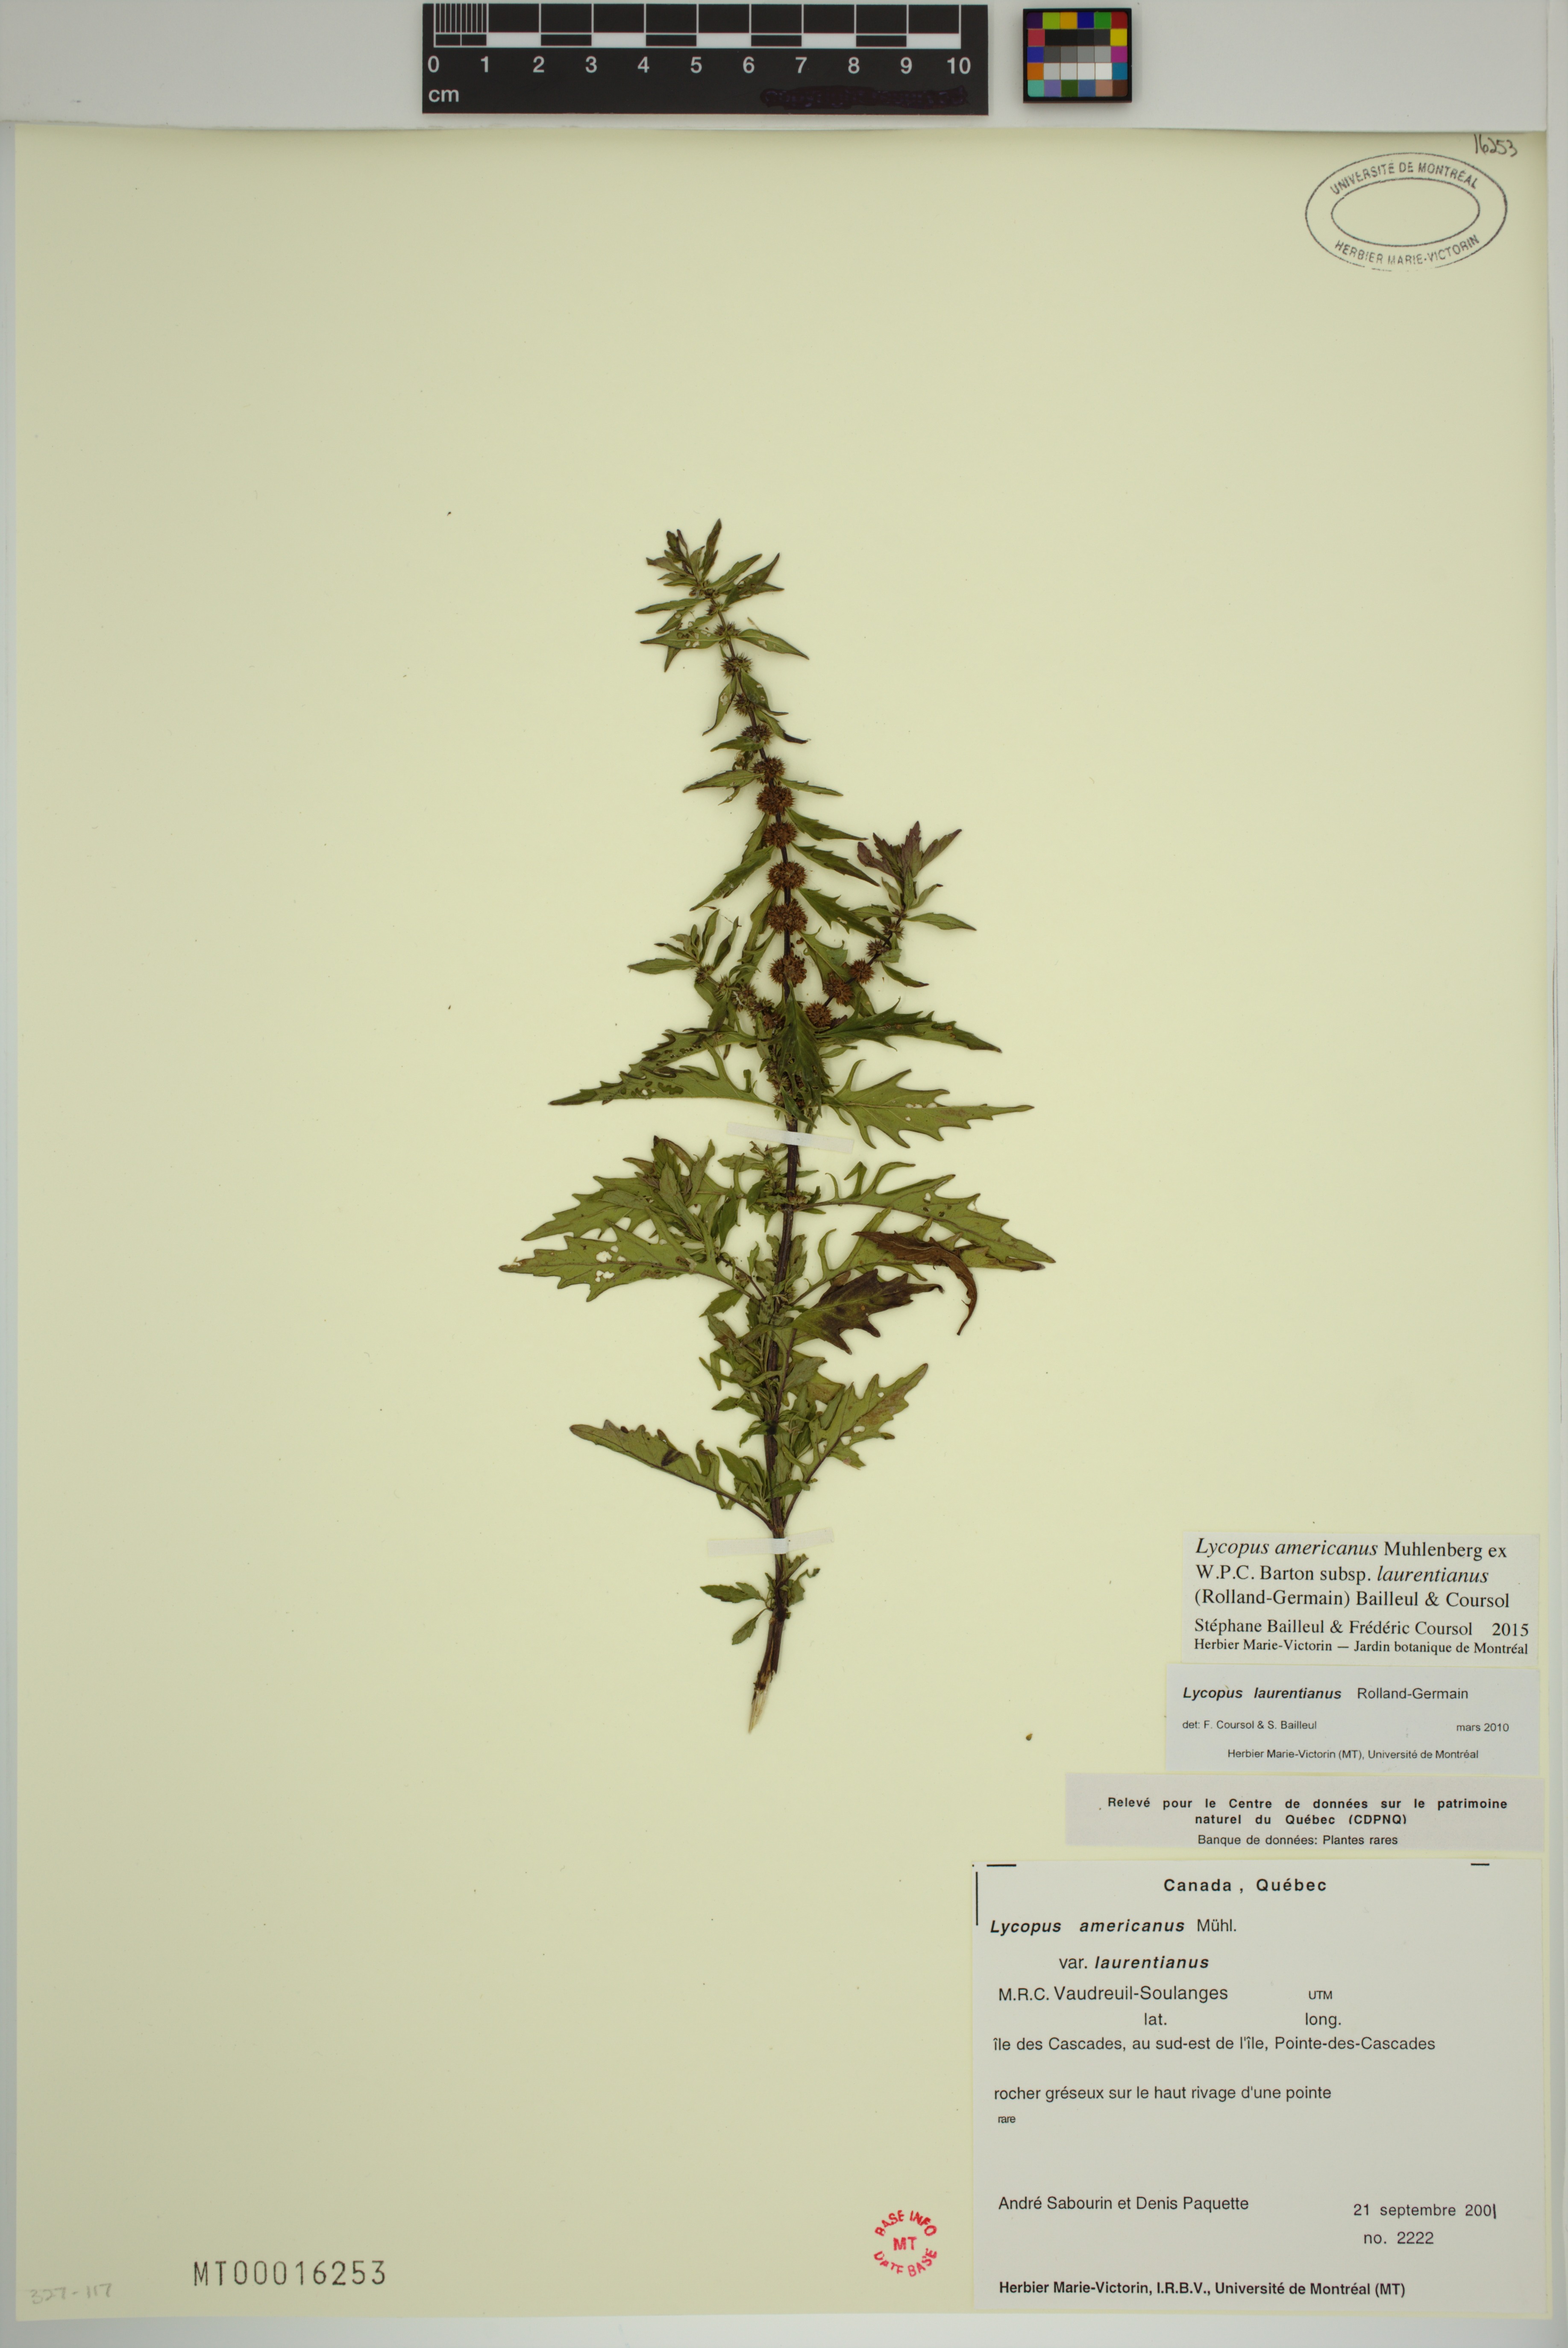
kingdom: Plantae
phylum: Tracheophyta
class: Magnoliopsida
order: Lamiales
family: Lamiaceae
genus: Lycopus
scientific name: Lycopus americanus
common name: American bugleweed
